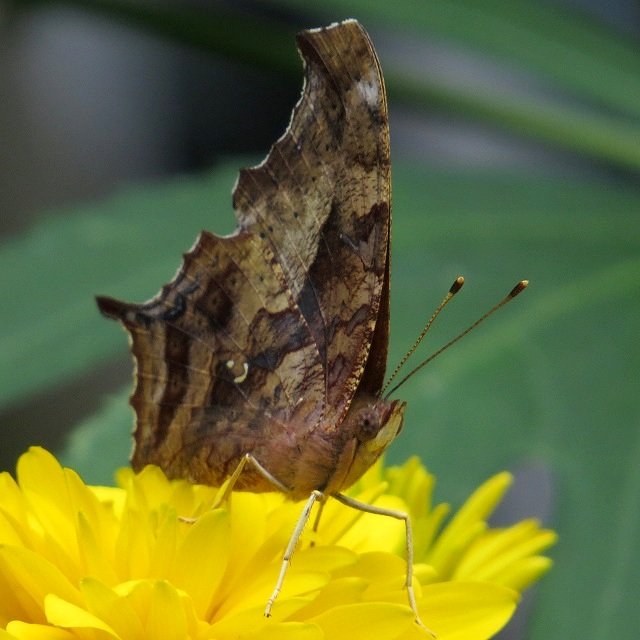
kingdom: Animalia
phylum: Arthropoda
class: Insecta
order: Lepidoptera
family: Nymphalidae
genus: Polygonia
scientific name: Polygonia interrogationis
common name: Question Mark
